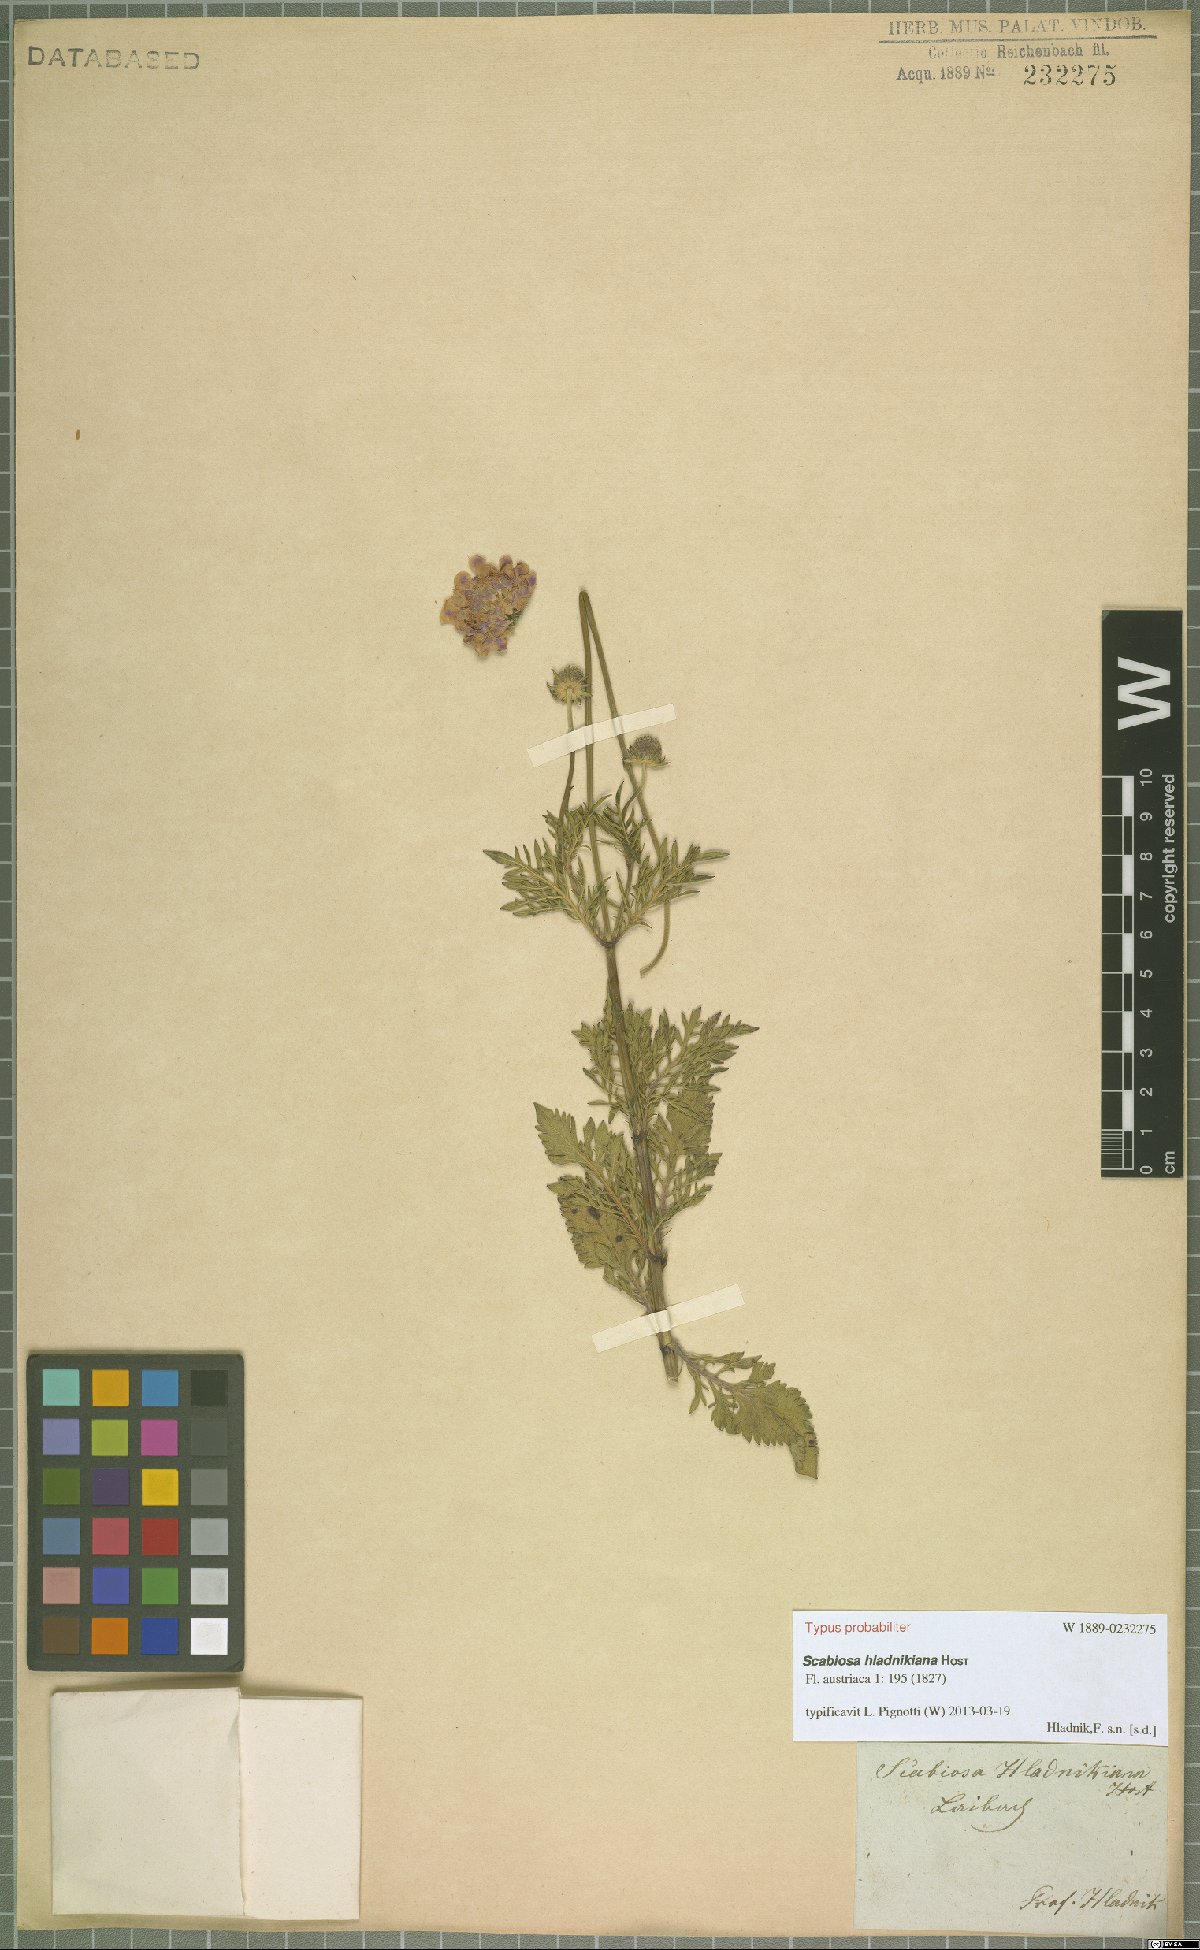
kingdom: Plantae
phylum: Tracheophyta
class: Magnoliopsida
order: Dipsacales
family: Caprifoliaceae
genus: Scabiosa
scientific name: Scabiosa hladnikiana
